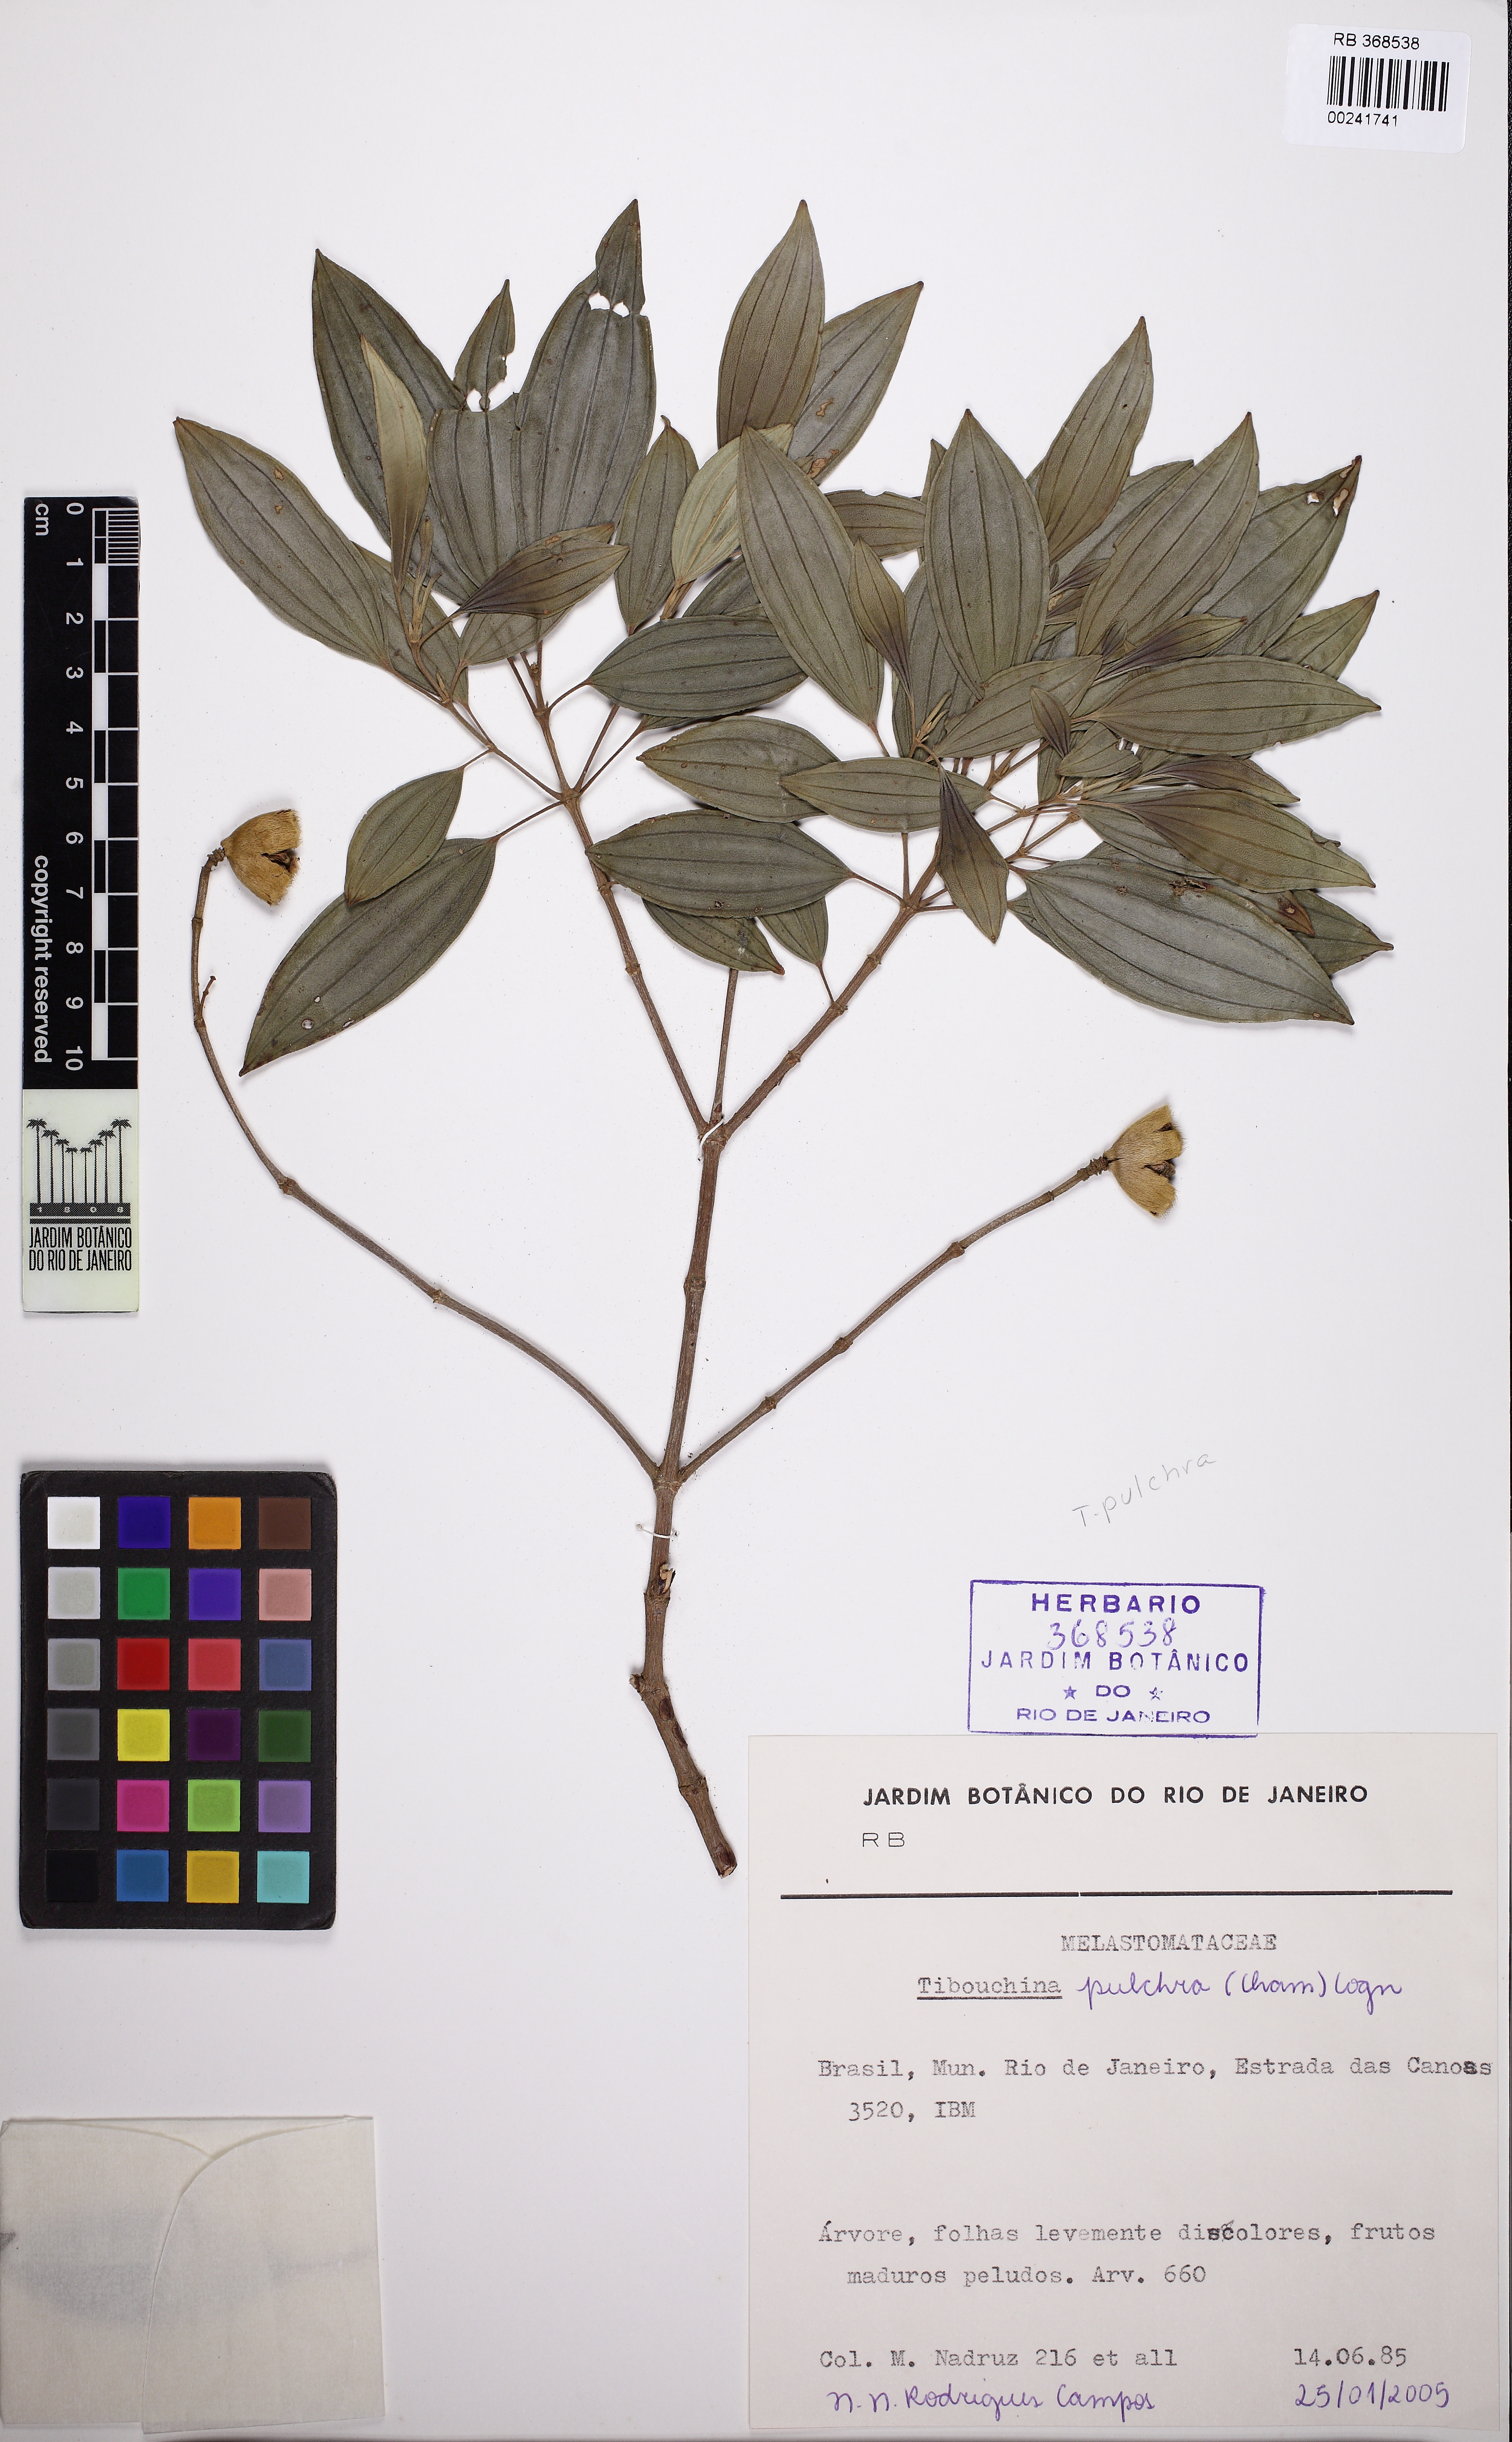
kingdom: Plantae
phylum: Tracheophyta
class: Magnoliopsida
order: Myrtales
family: Melastomataceae
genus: Pleroma
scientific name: Pleroma raddianum
